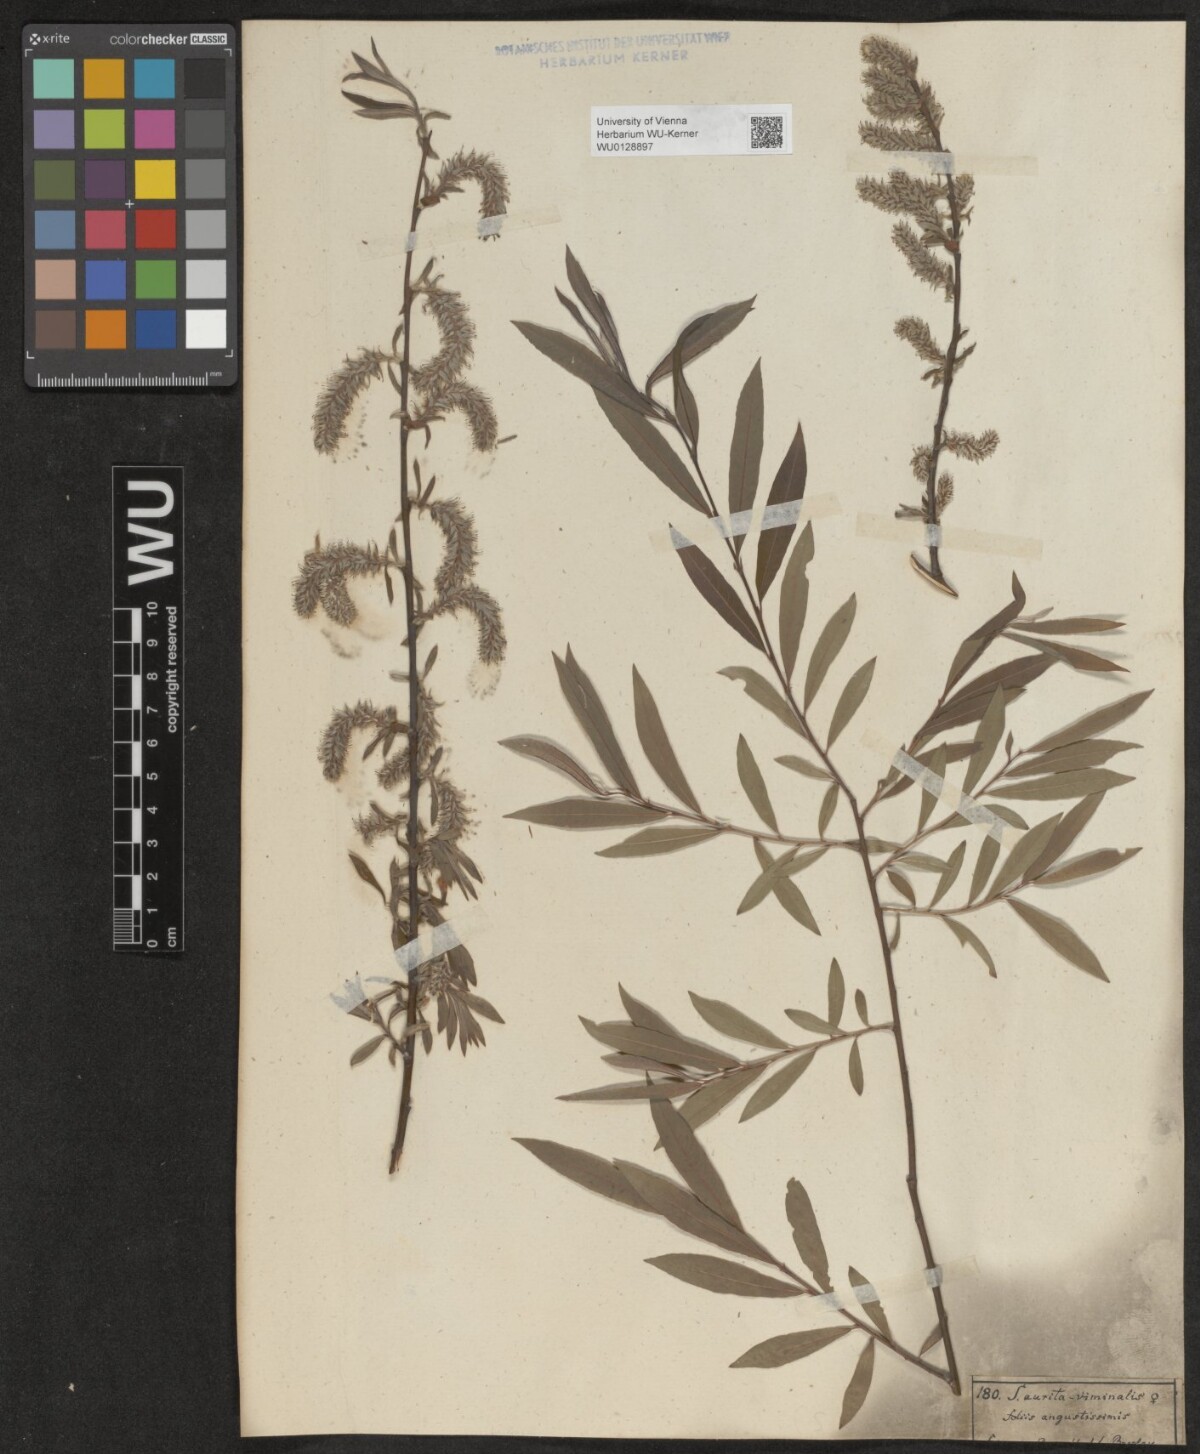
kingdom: Plantae
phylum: Tracheophyta
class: Magnoliopsida
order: Malpighiales
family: Salicaceae
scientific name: Salicaceae
